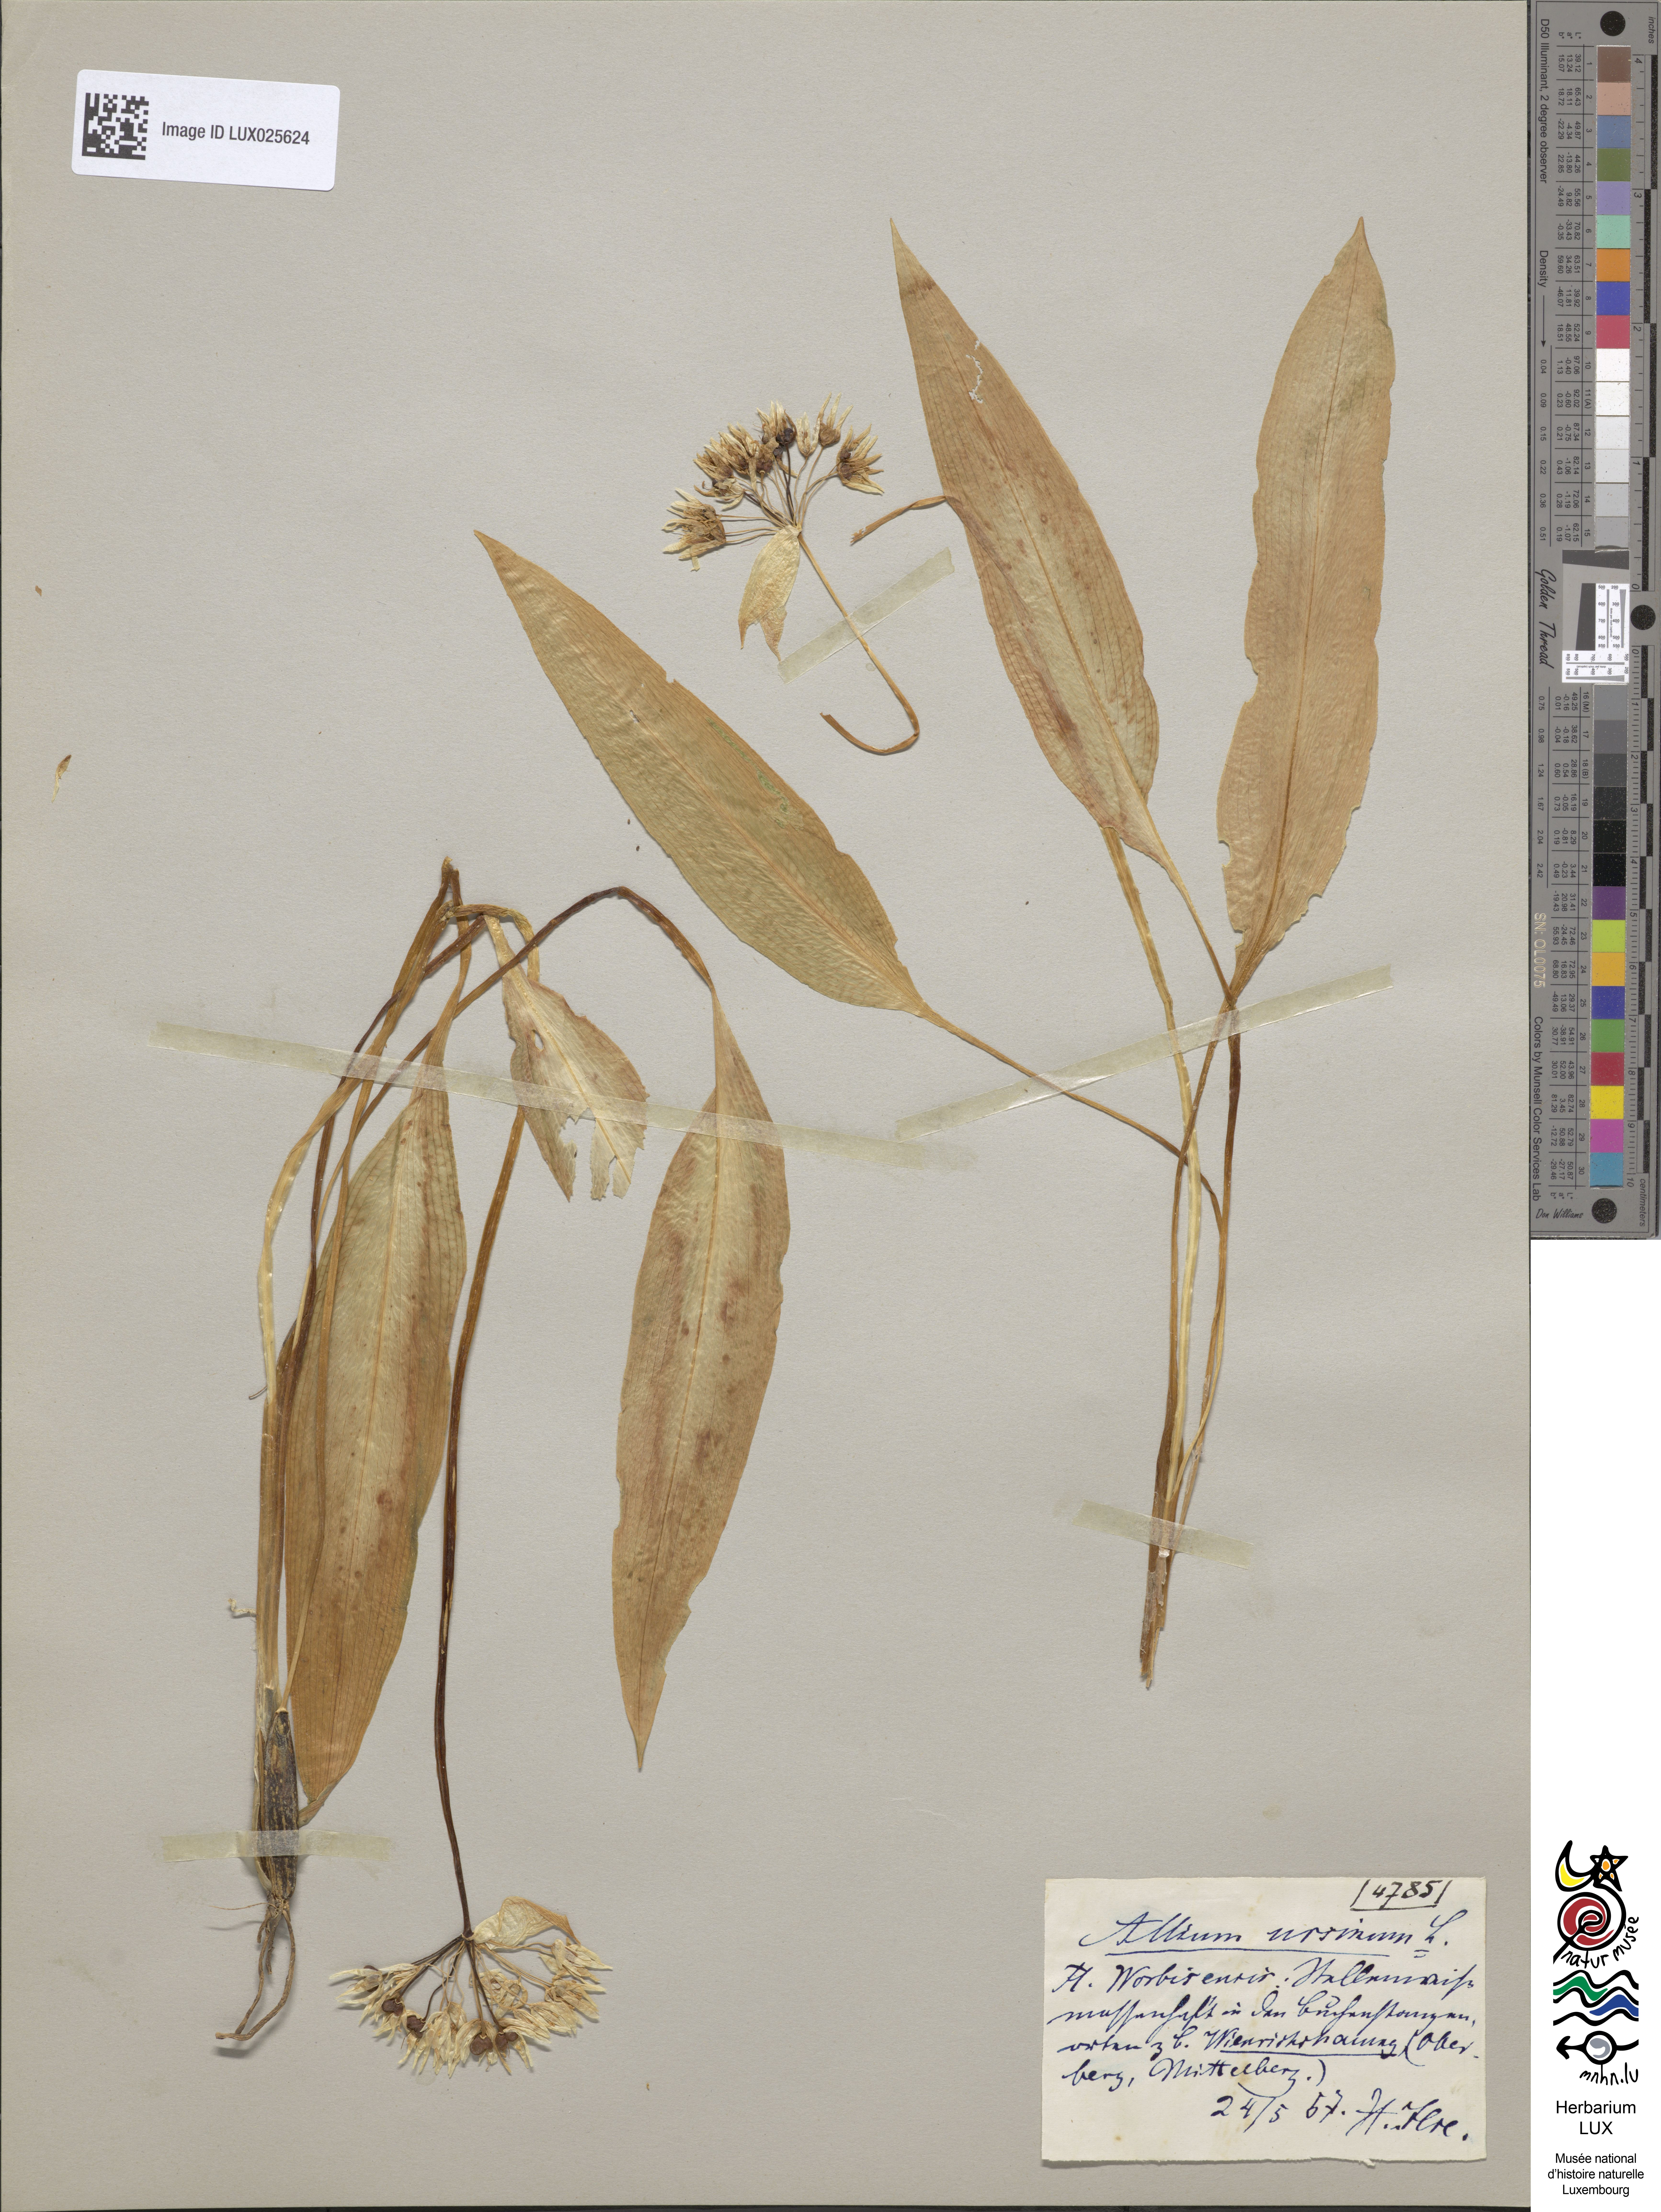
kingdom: Plantae
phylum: Tracheophyta
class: Liliopsida
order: Asparagales
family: Amaryllidaceae
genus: Allium
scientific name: Allium ursinum
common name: Ramsons
